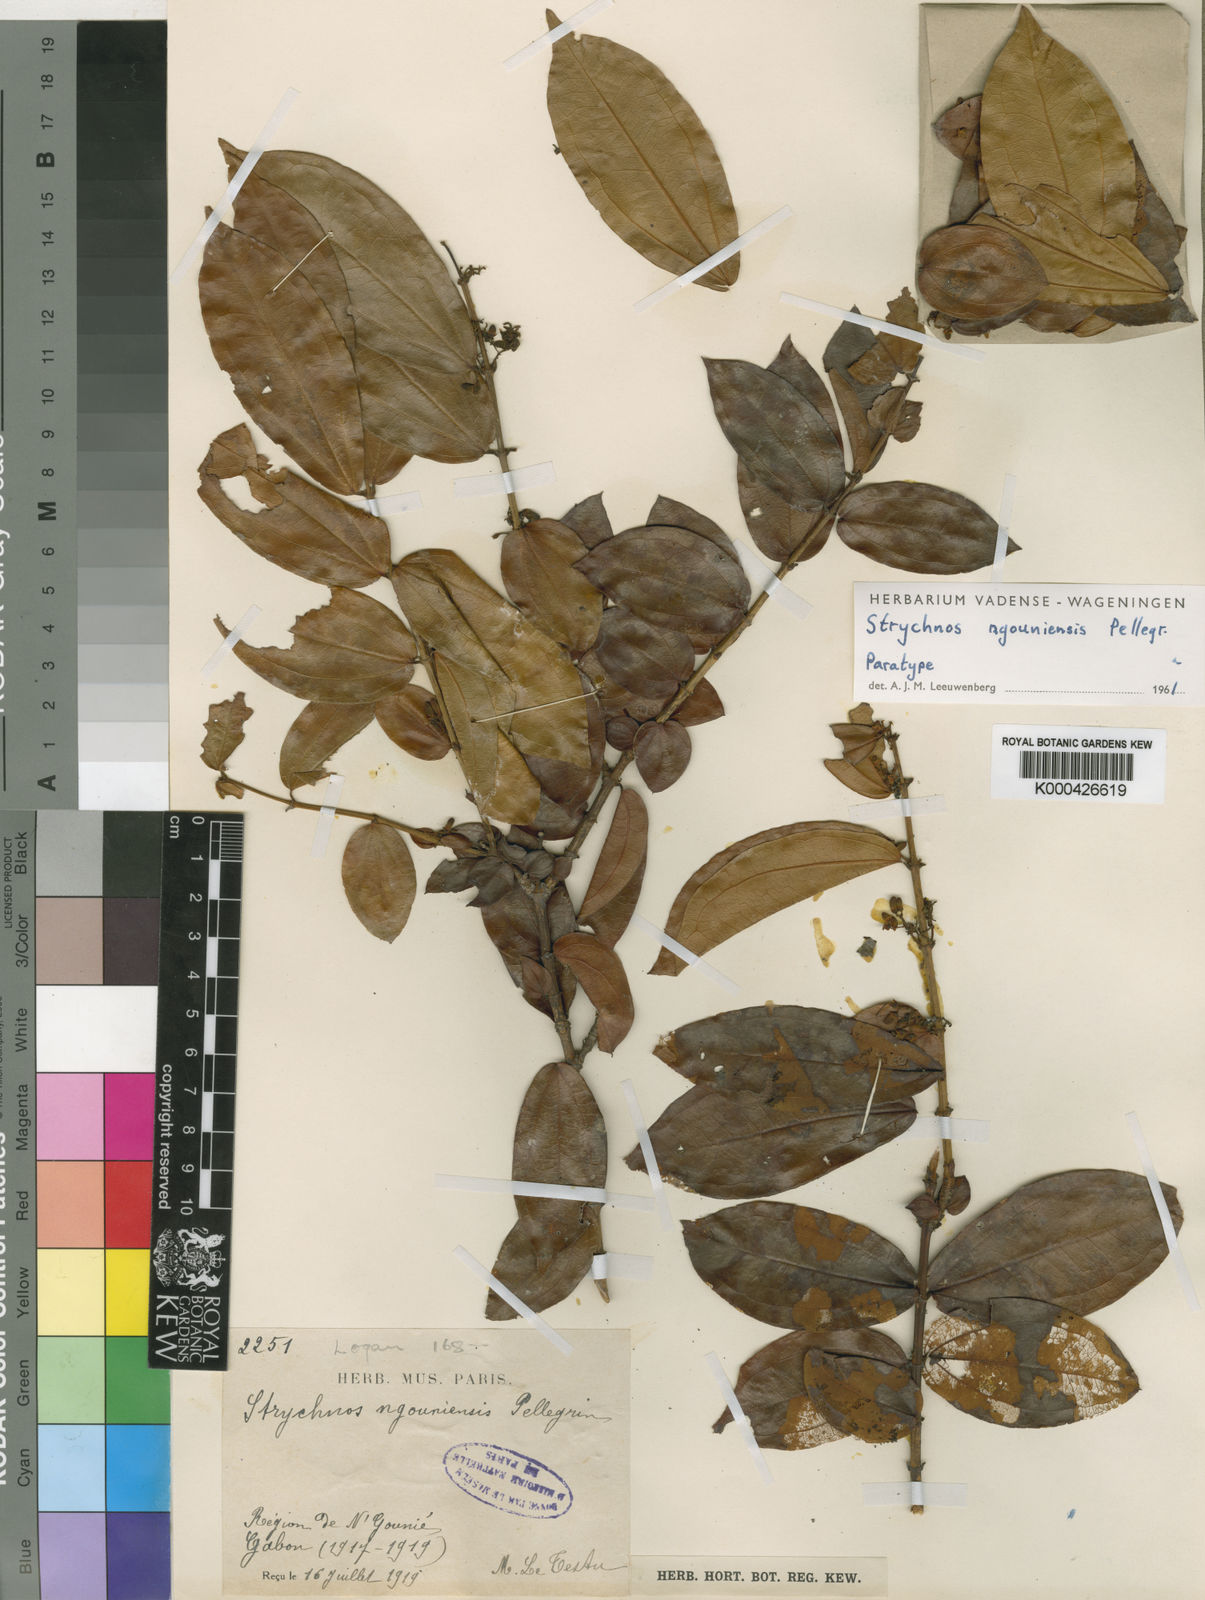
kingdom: Plantae
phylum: Tracheophyta
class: Magnoliopsida
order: Gentianales
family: Loganiaceae
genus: Strychnos
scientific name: Strychnos ngouniensis
